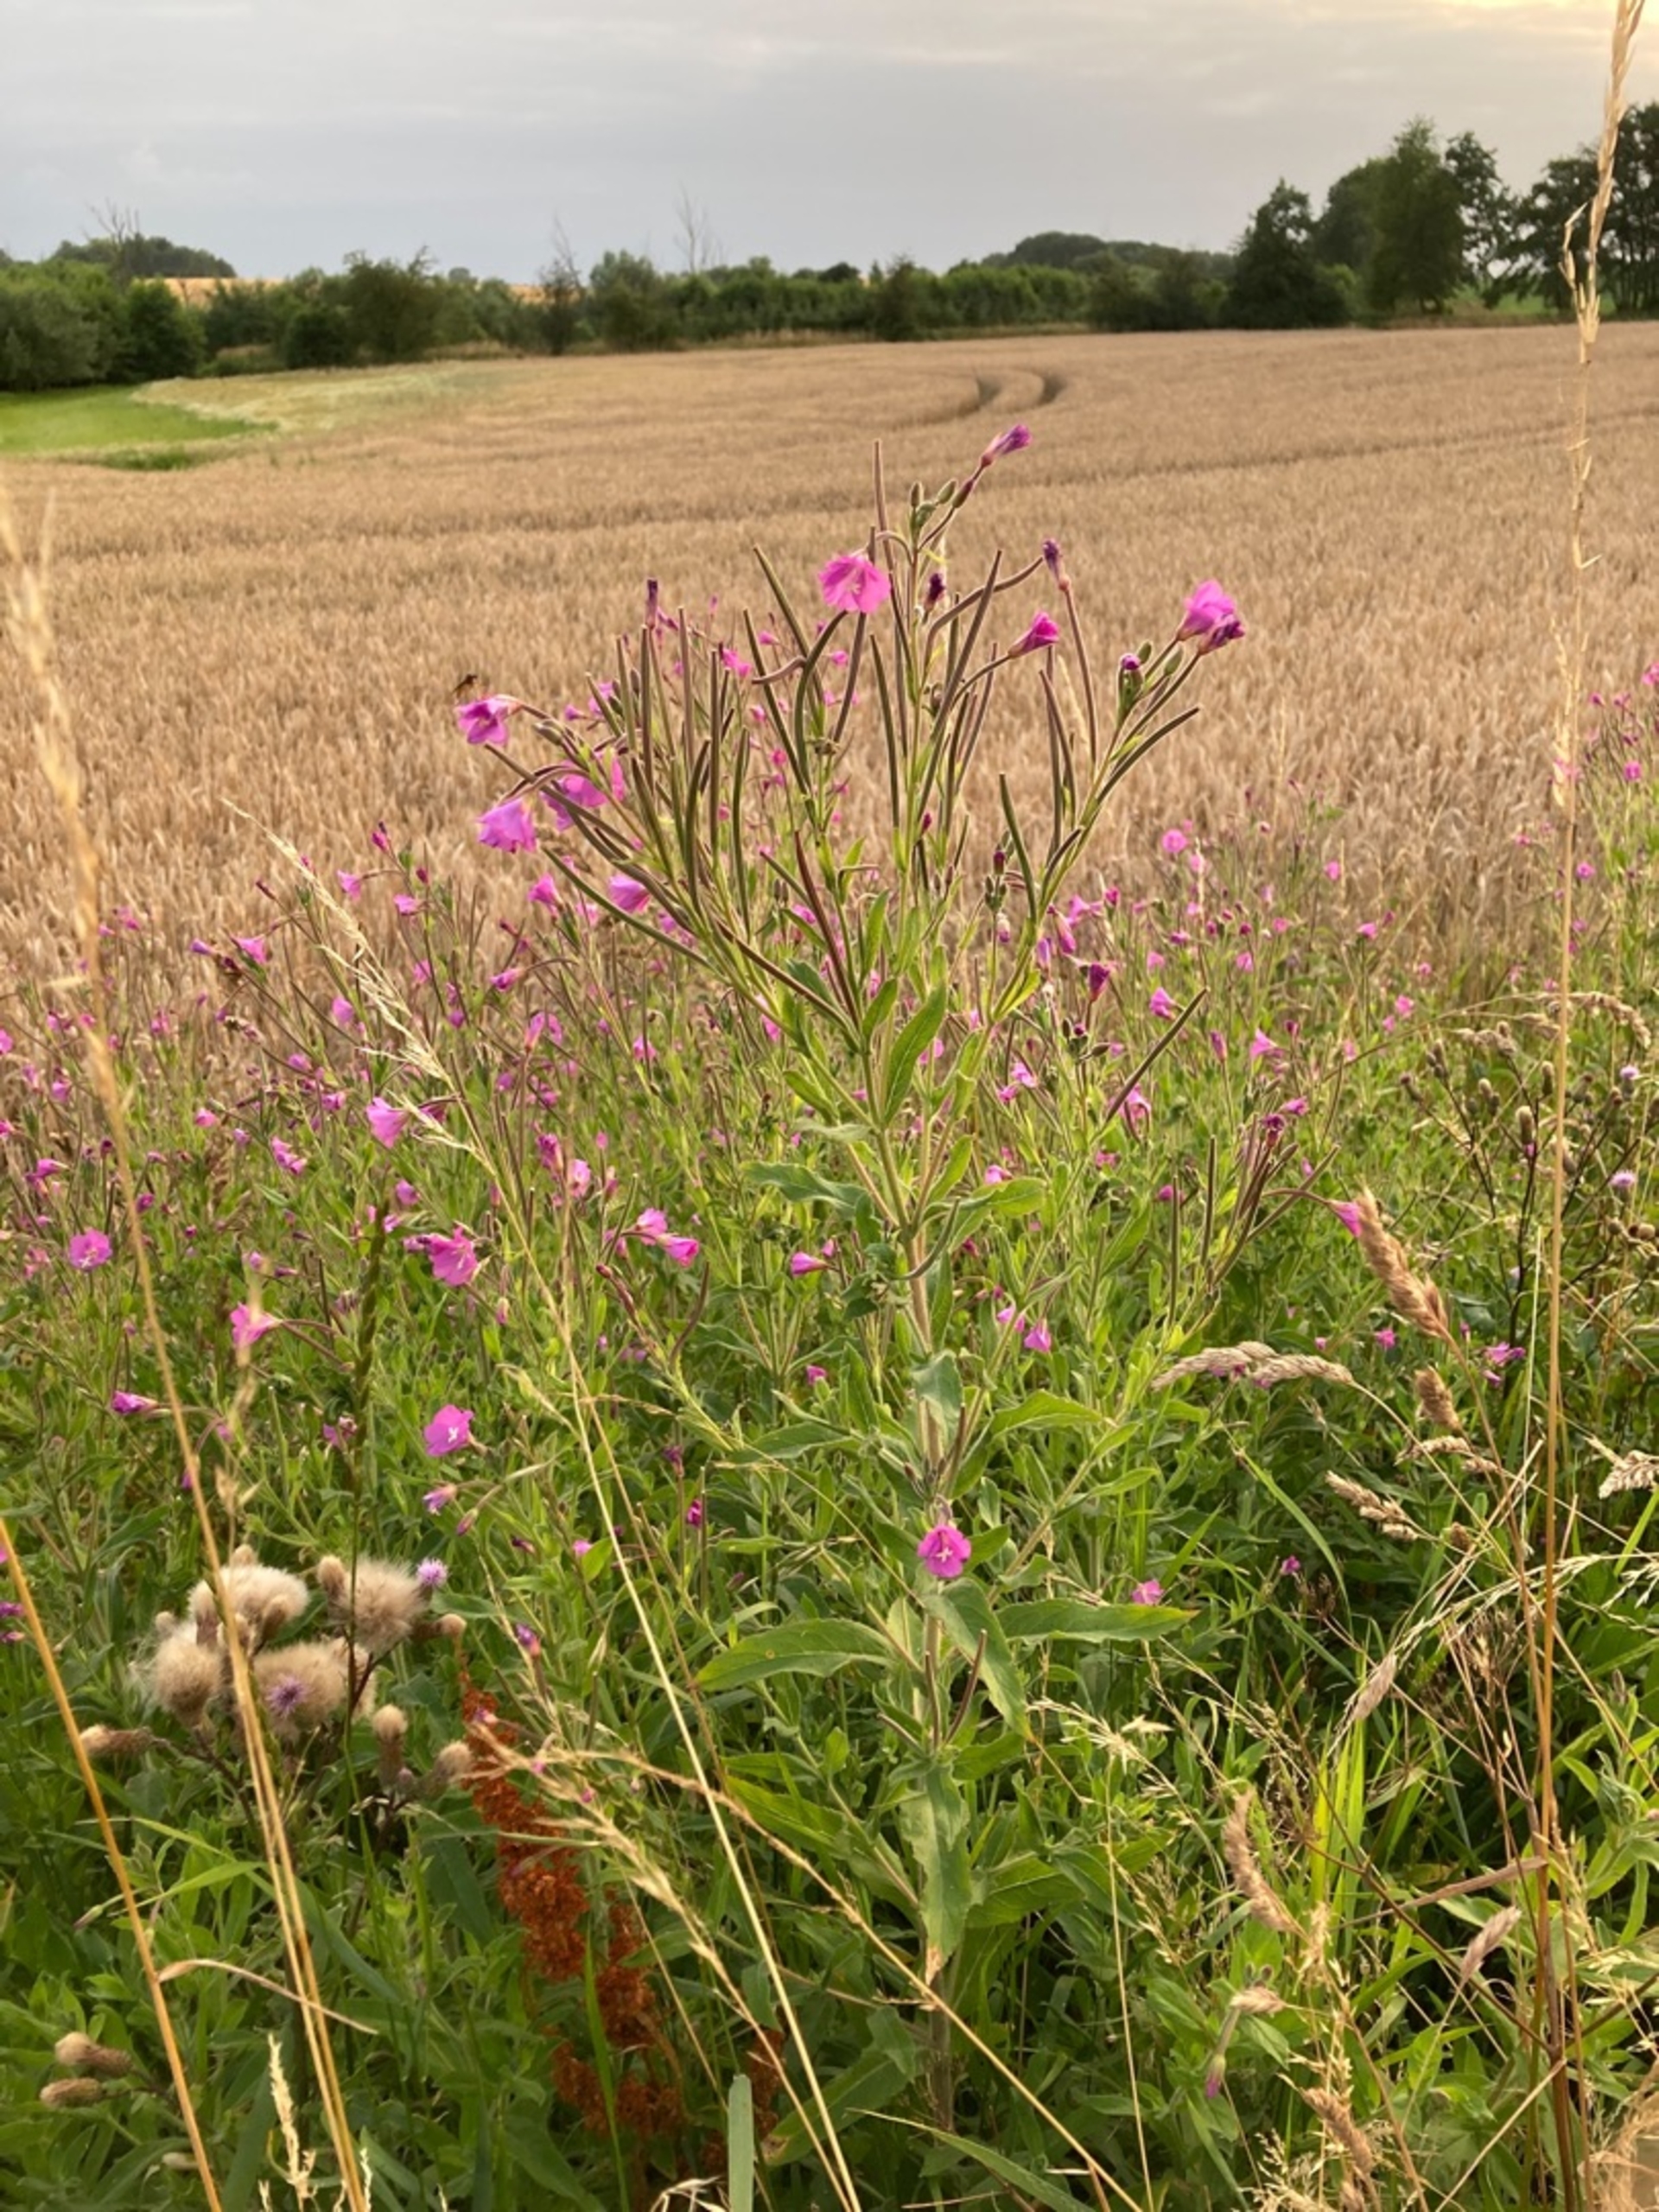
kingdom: Plantae
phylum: Tracheophyta
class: Magnoliopsida
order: Myrtales
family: Onagraceae
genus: Epilobium
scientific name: Epilobium hirsutum
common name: Lådden dueurt
